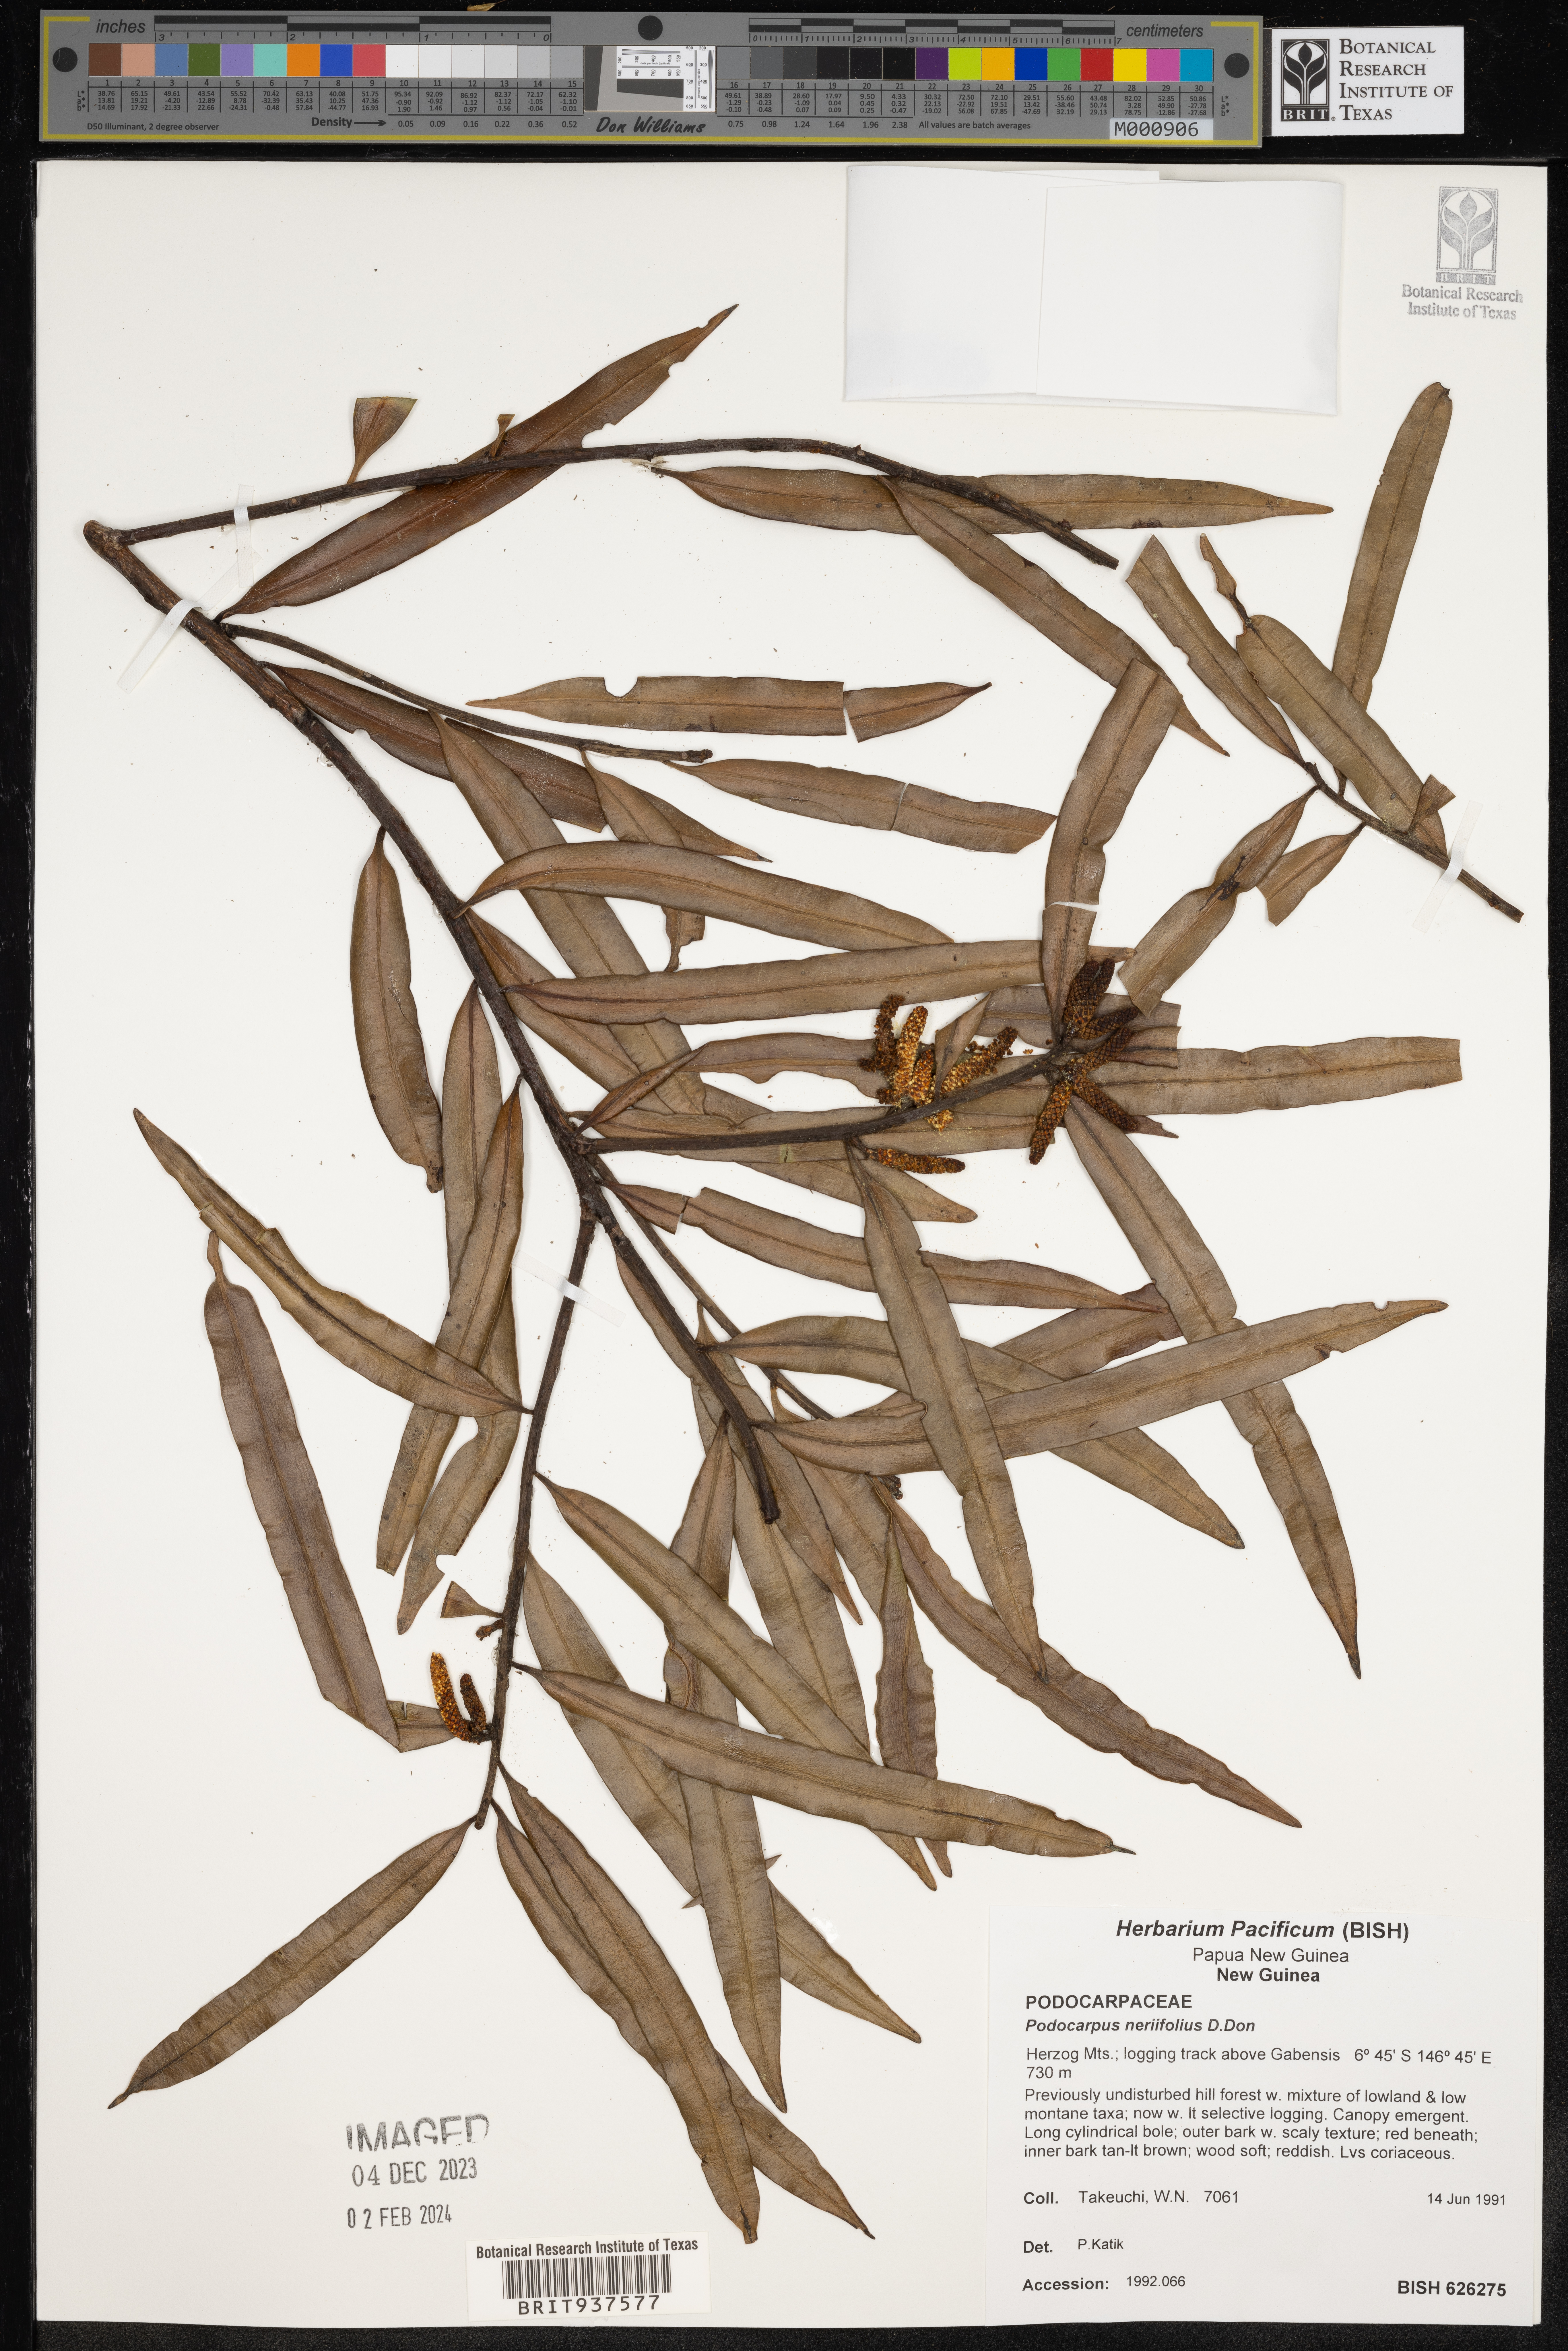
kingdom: Plantae
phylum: Tracheophyta
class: Pinopsida
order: Pinales
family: Podocarpaceae
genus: Podocarpus
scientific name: Podocarpus
